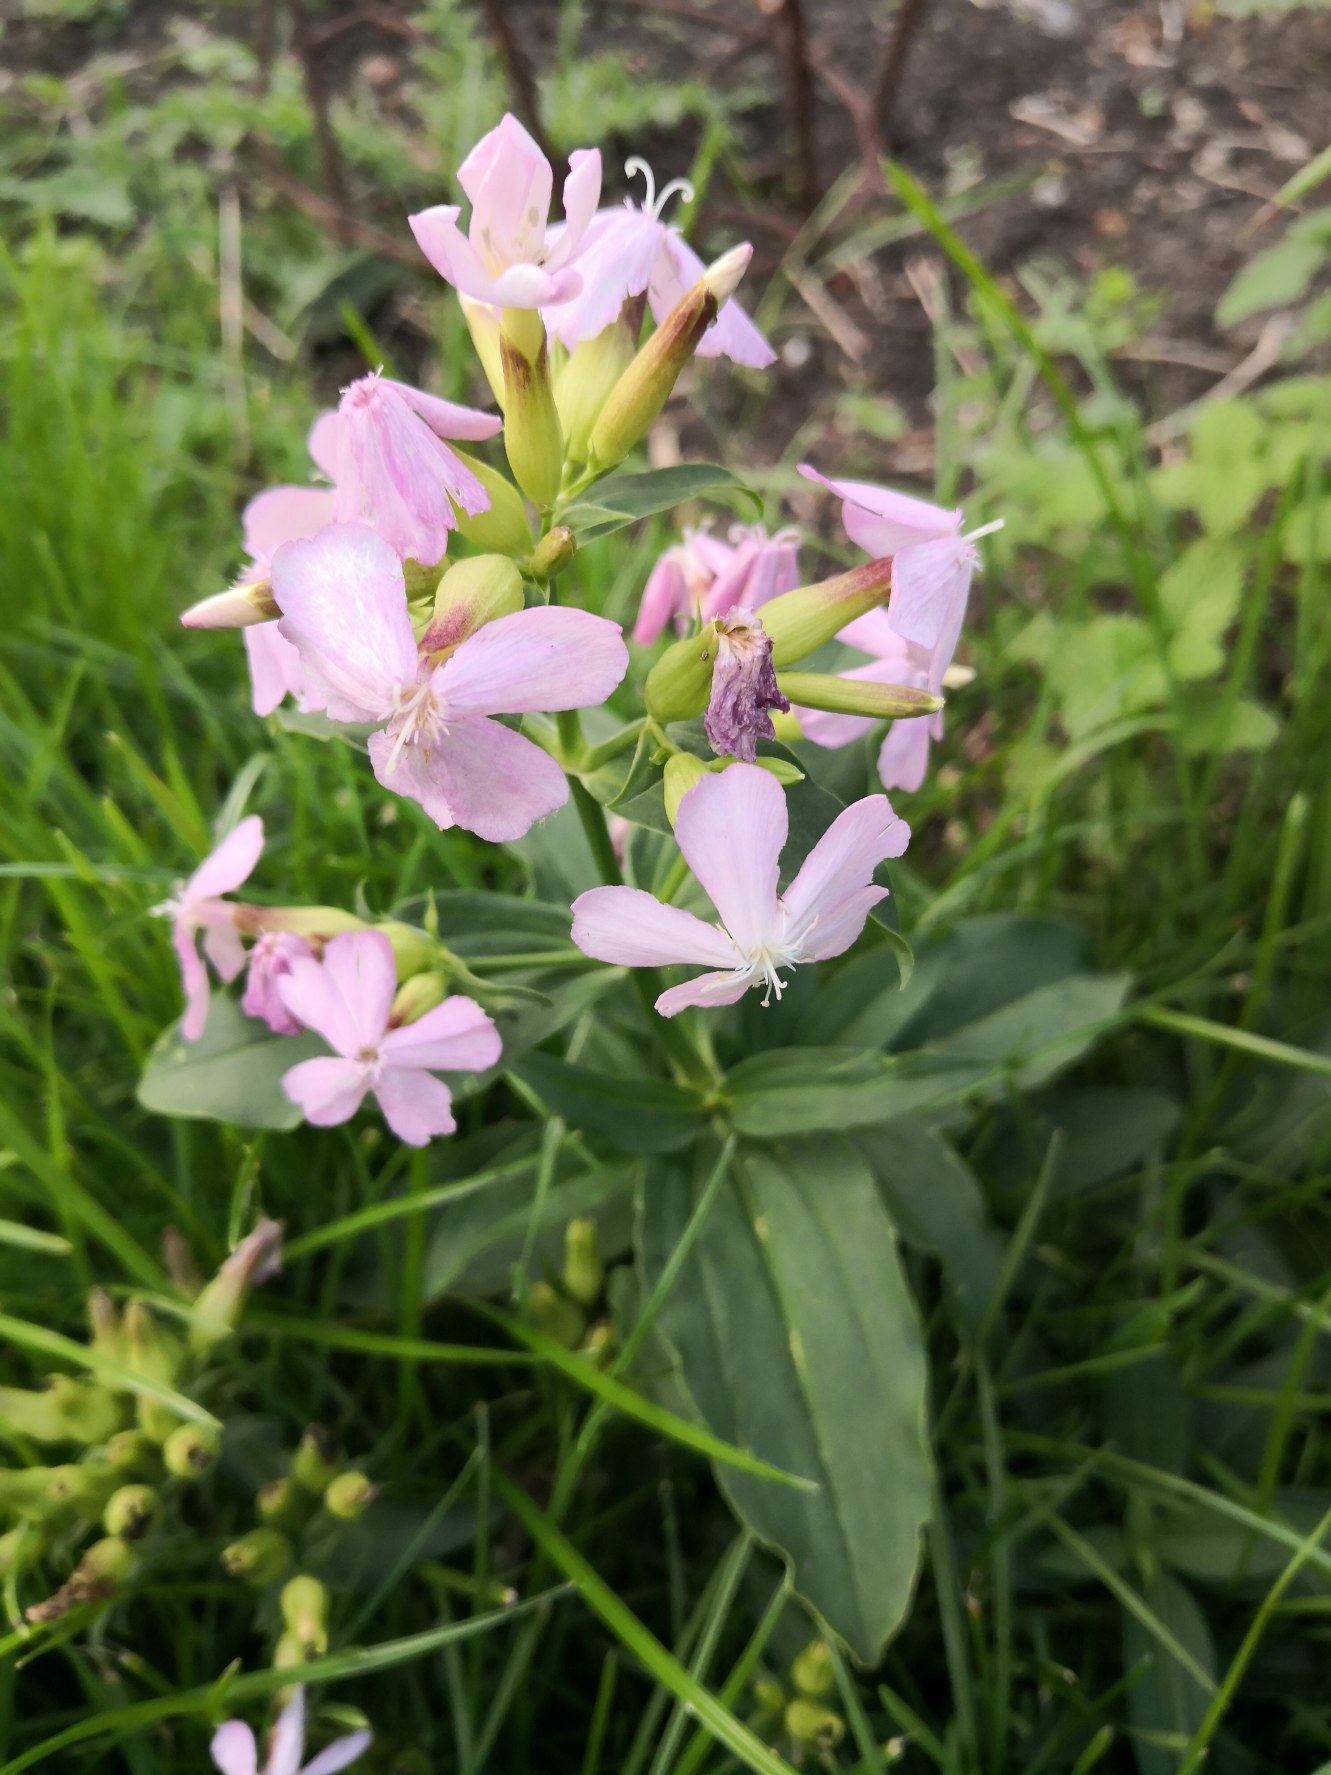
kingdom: Plantae
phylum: Tracheophyta
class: Magnoliopsida
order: Caryophyllales
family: Caryophyllaceae
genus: Saponaria
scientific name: Saponaria officinalis
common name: Sæbeurt
